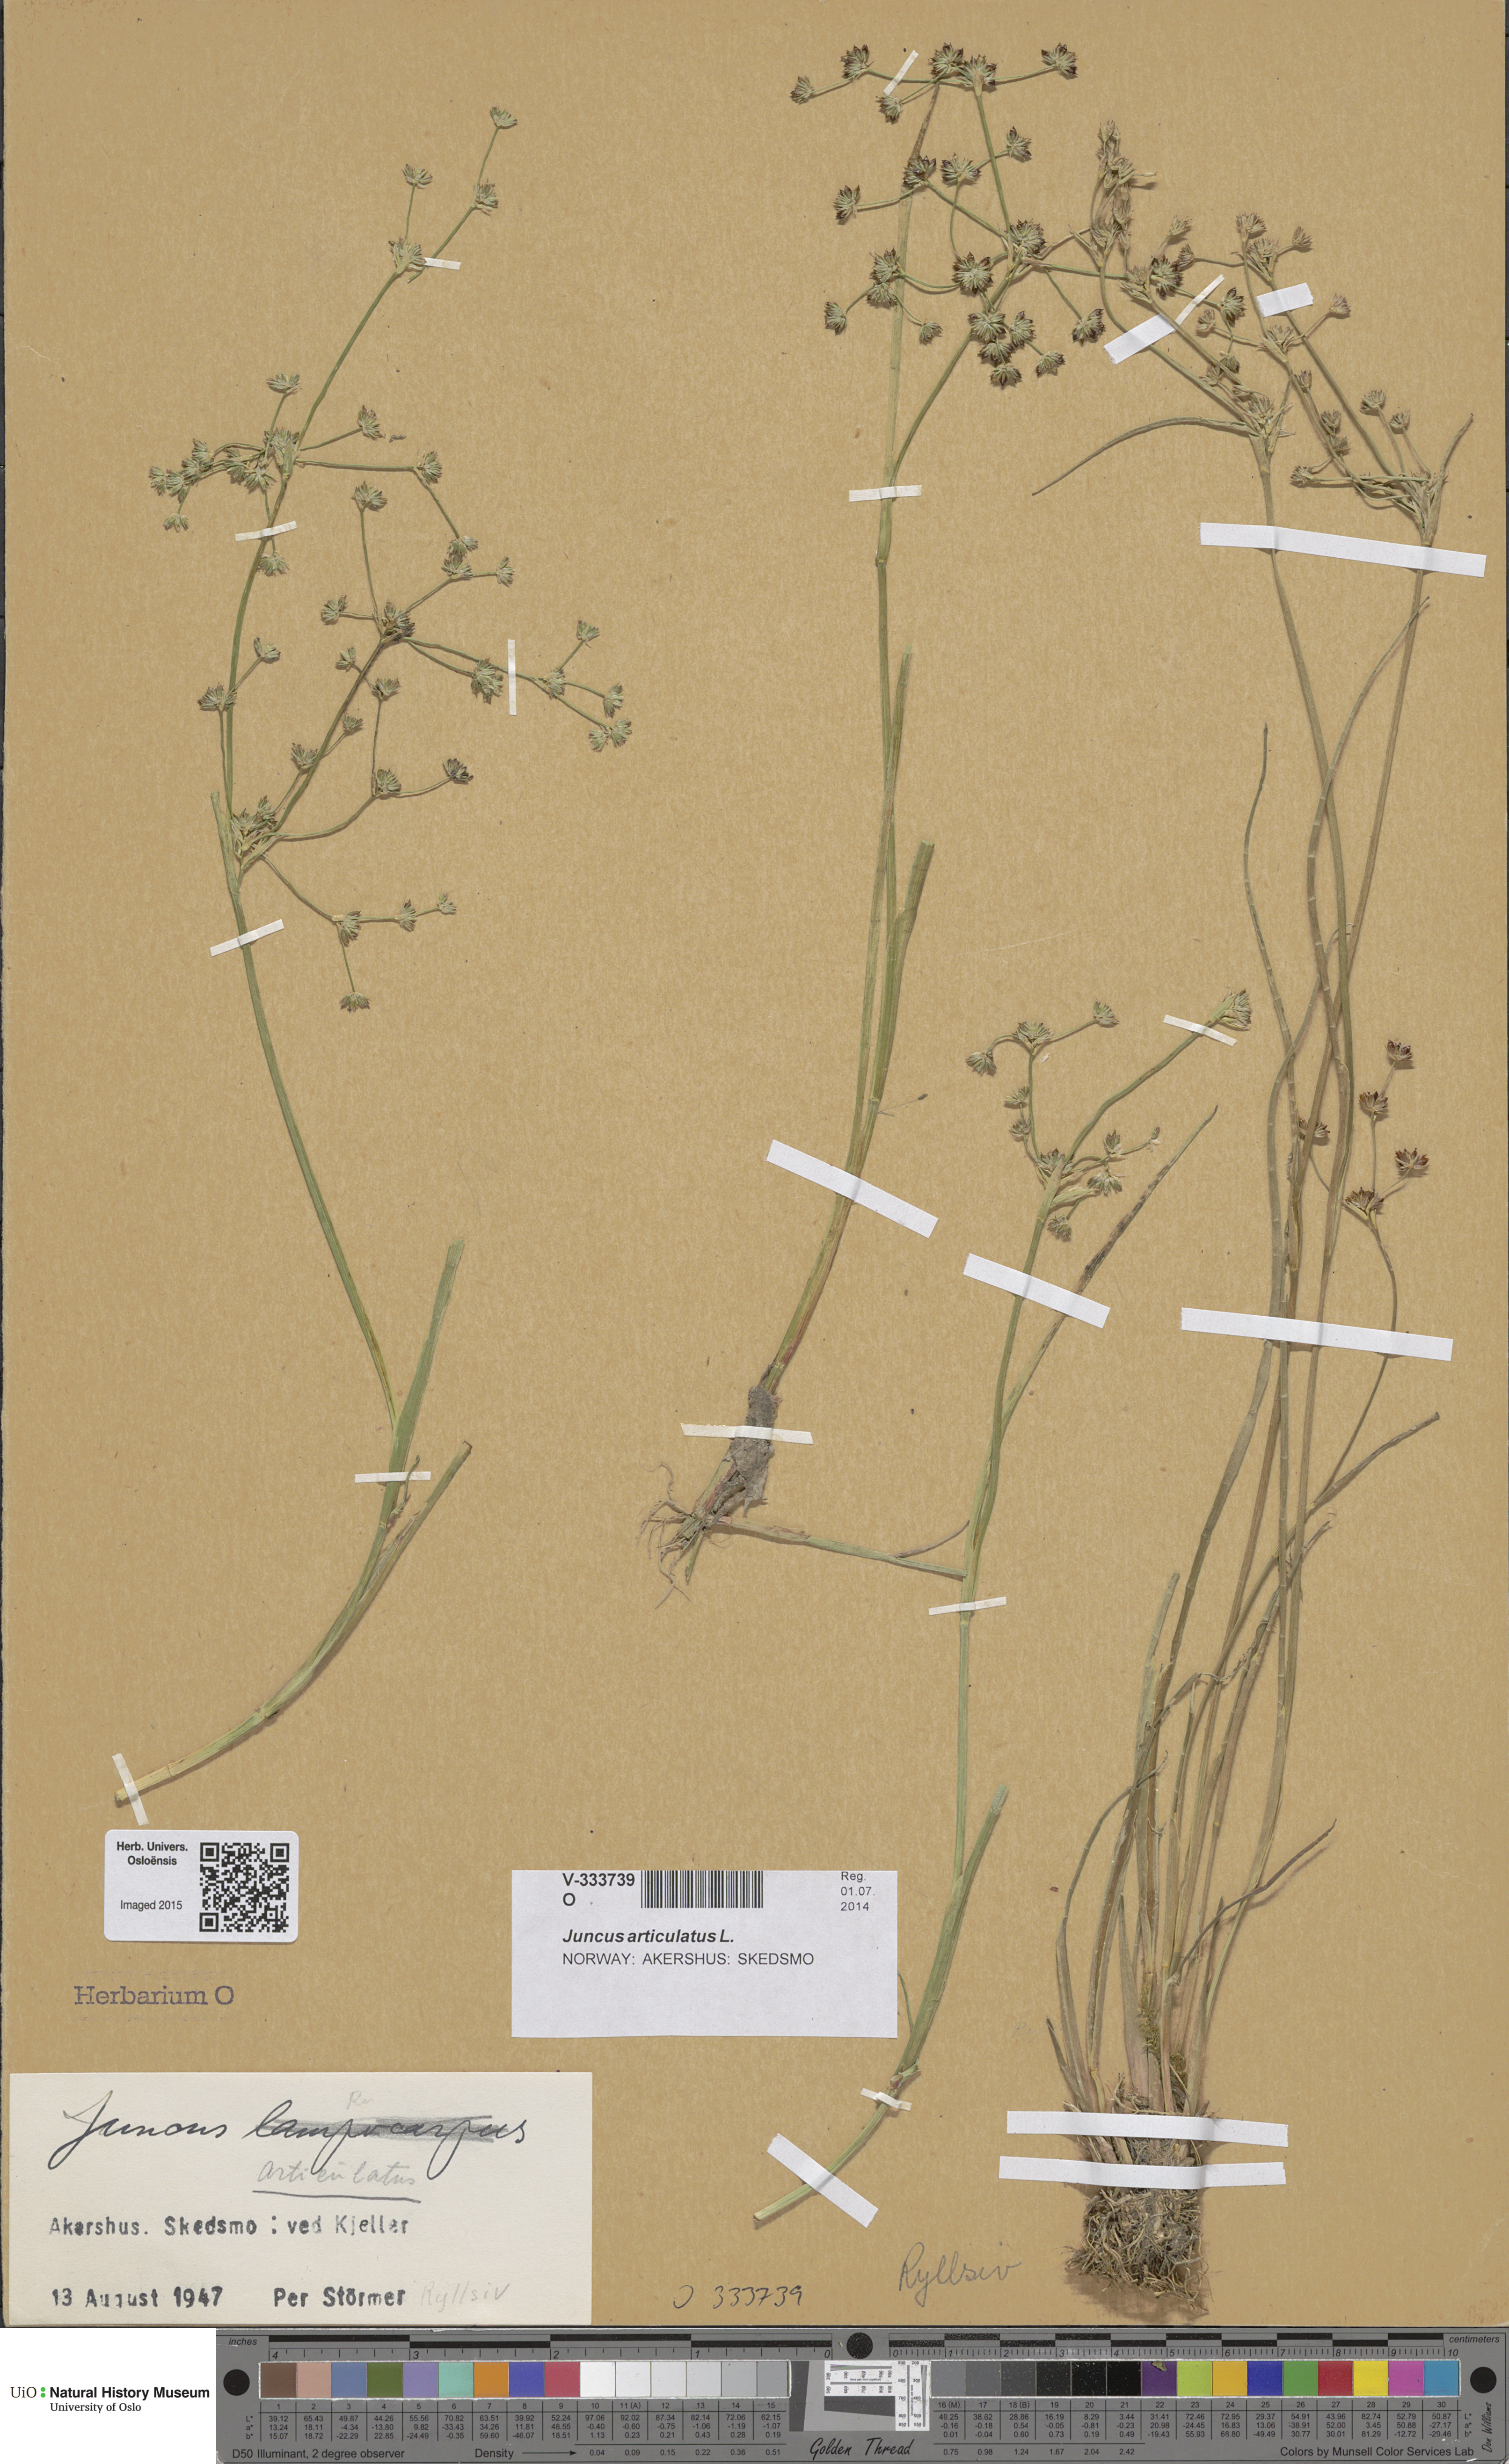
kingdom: Plantae
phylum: Tracheophyta
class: Liliopsida
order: Poales
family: Juncaceae
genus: Juncus
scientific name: Juncus articulatus
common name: Jointed rush
